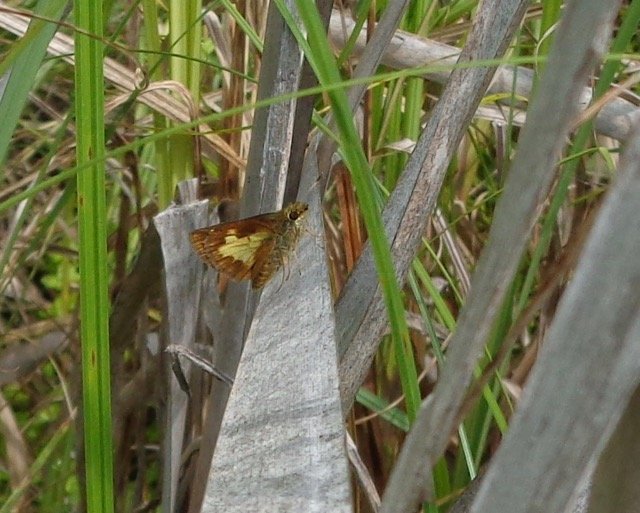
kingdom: Animalia
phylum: Arthropoda
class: Insecta
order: Lepidoptera
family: Hesperiidae
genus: Poanes
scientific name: Poanes massasoit
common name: Mulberry Wing
